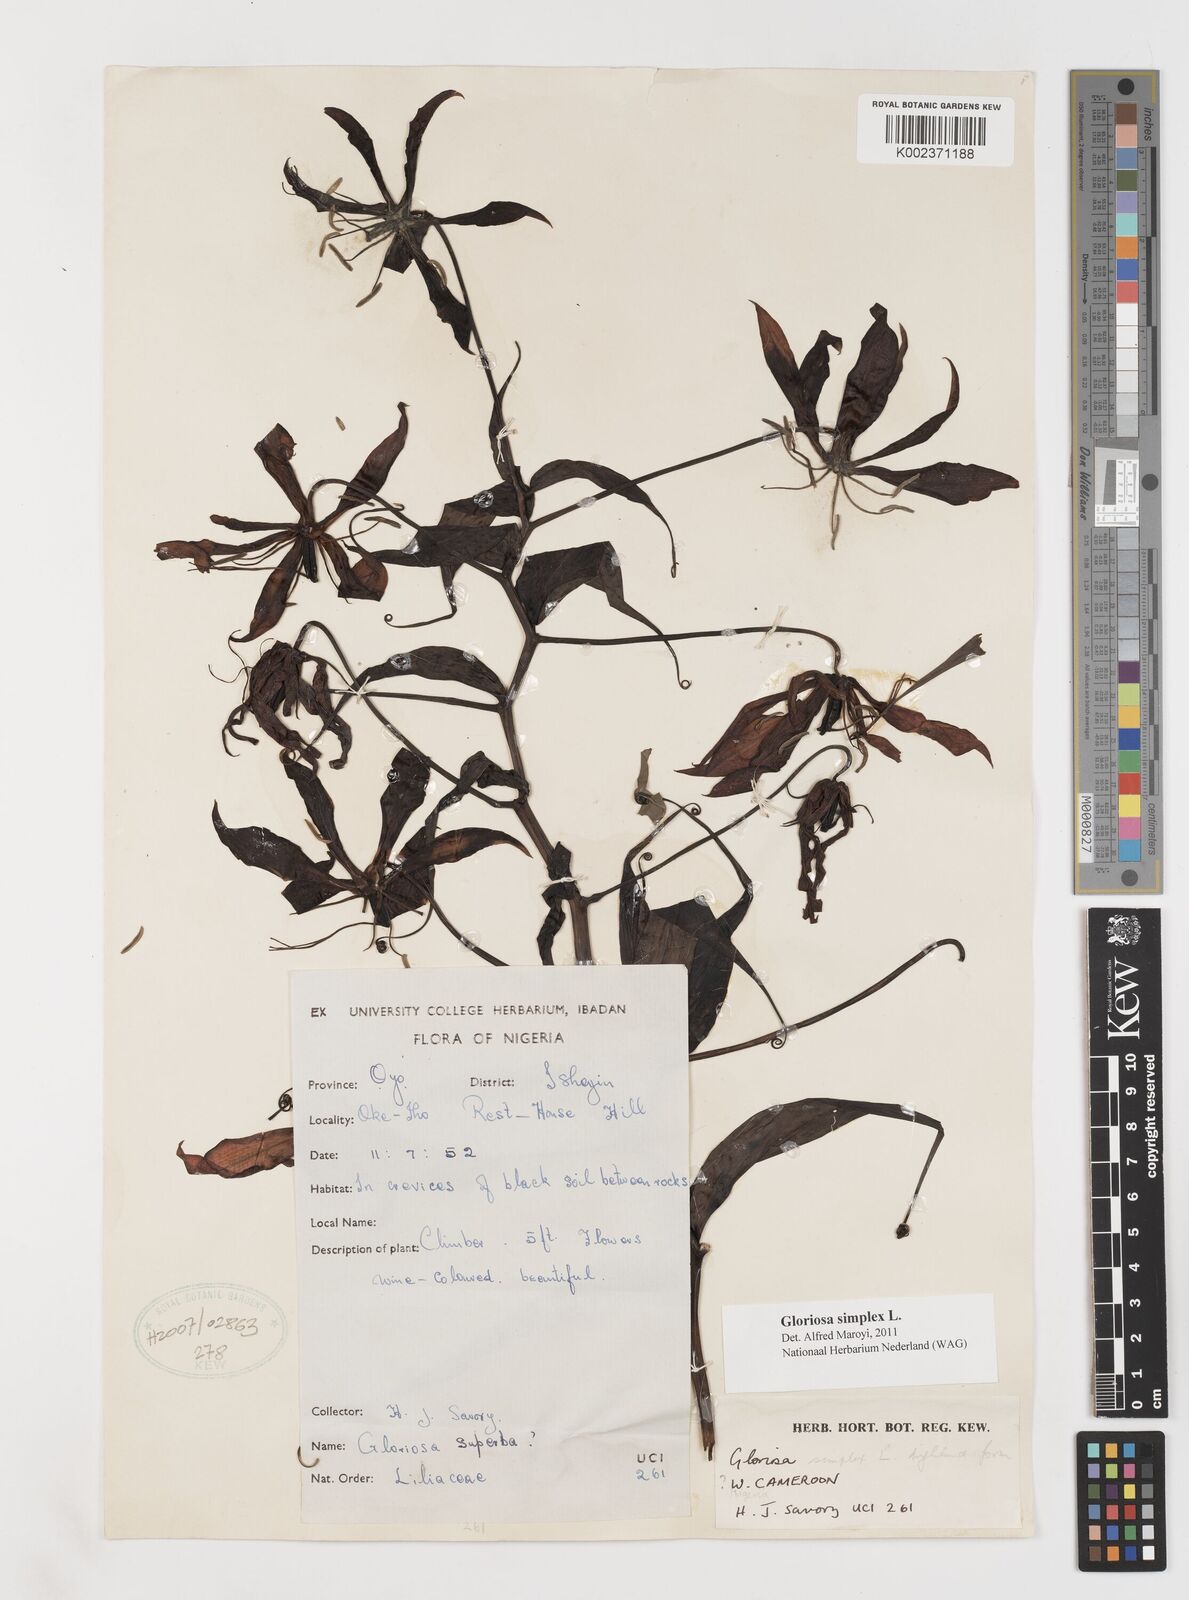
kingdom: Plantae
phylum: Tracheophyta
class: Liliopsida
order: Liliales
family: Colchicaceae
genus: Gloriosa
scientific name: Gloriosa simplex
